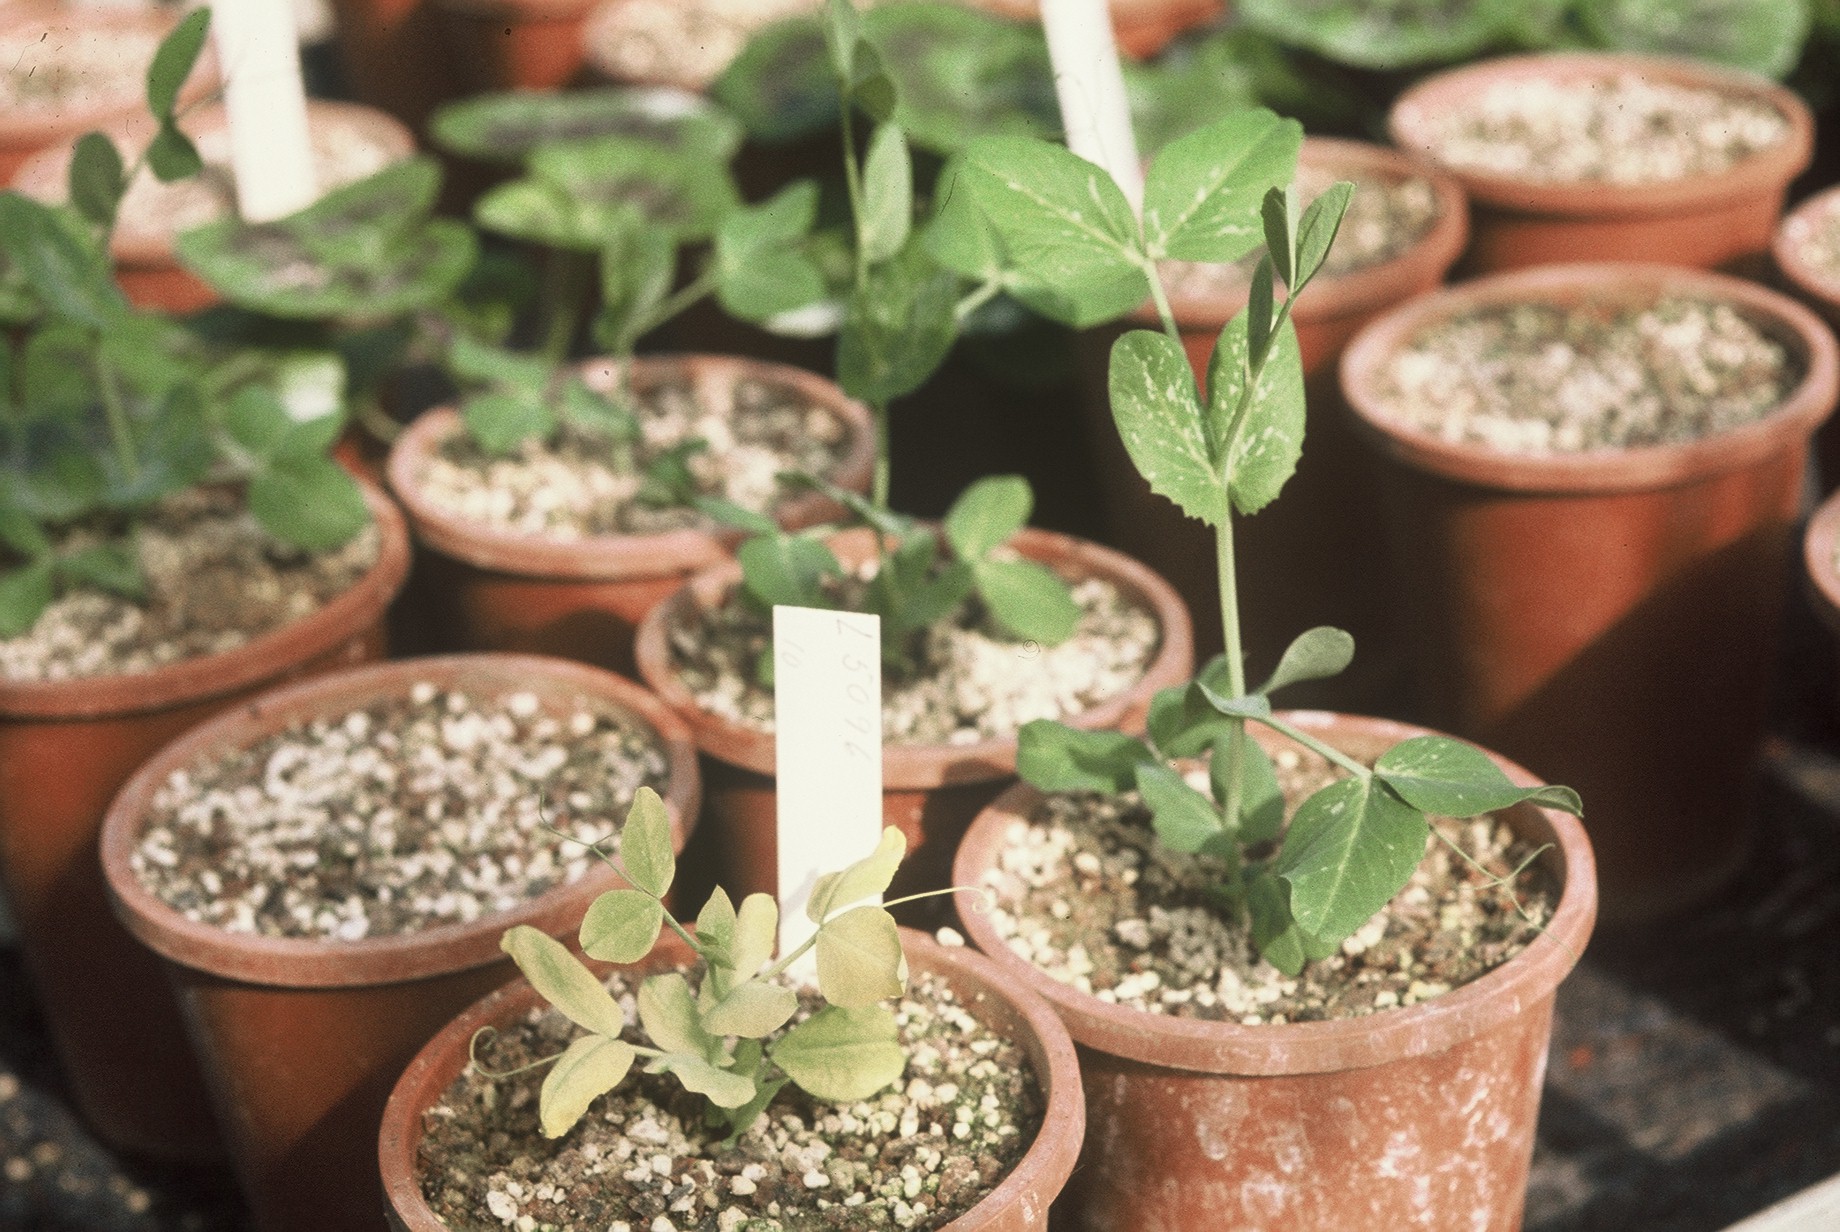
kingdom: Plantae
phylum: Tracheophyta
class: Magnoliopsida
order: Fabales
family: Fabaceae
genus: Lathyrus
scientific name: Lathyrus oleraceus
